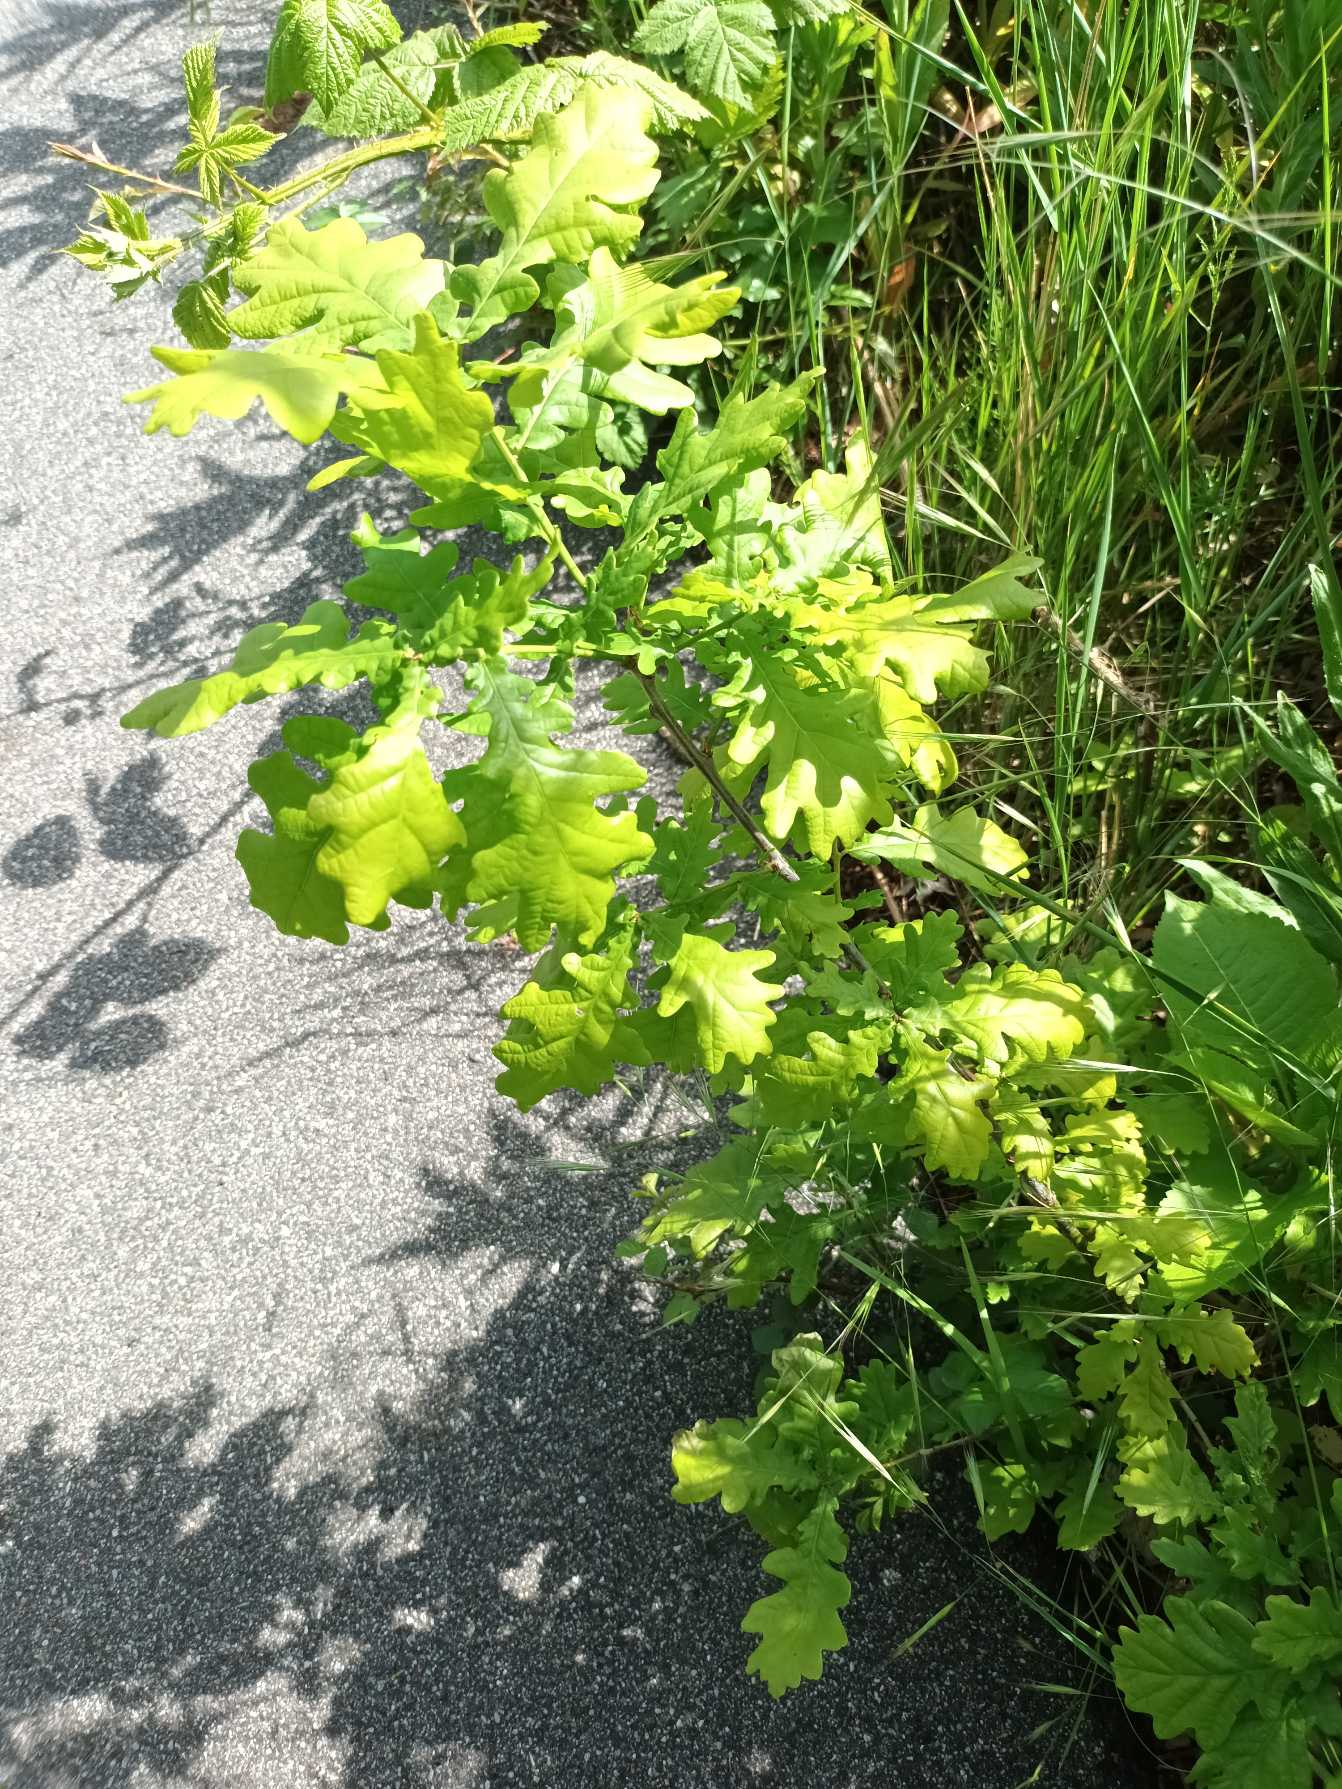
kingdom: Plantae
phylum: Tracheophyta
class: Magnoliopsida
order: Fagales
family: Fagaceae
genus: Quercus
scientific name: Quercus robur
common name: Stilk-eg/almindelig eg
